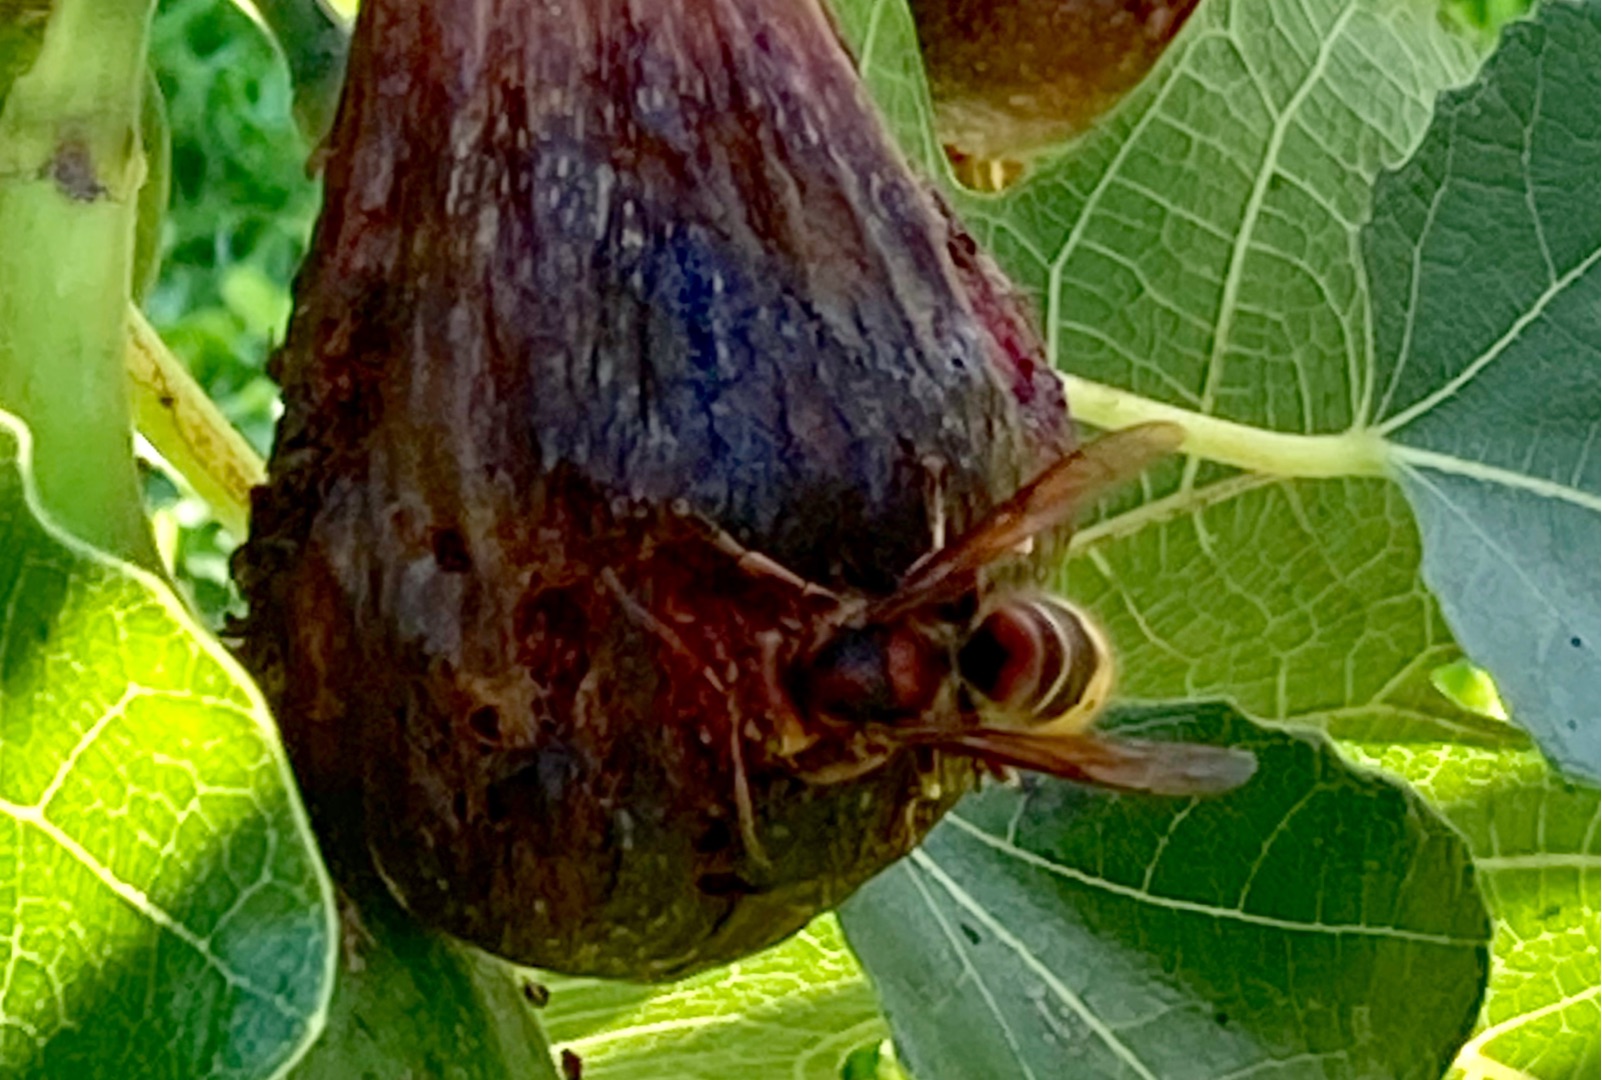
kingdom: Animalia
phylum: Arthropoda
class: Insecta
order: Hymenoptera
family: Vespidae
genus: Vespa
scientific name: Vespa crabro
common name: Stor gedehams
